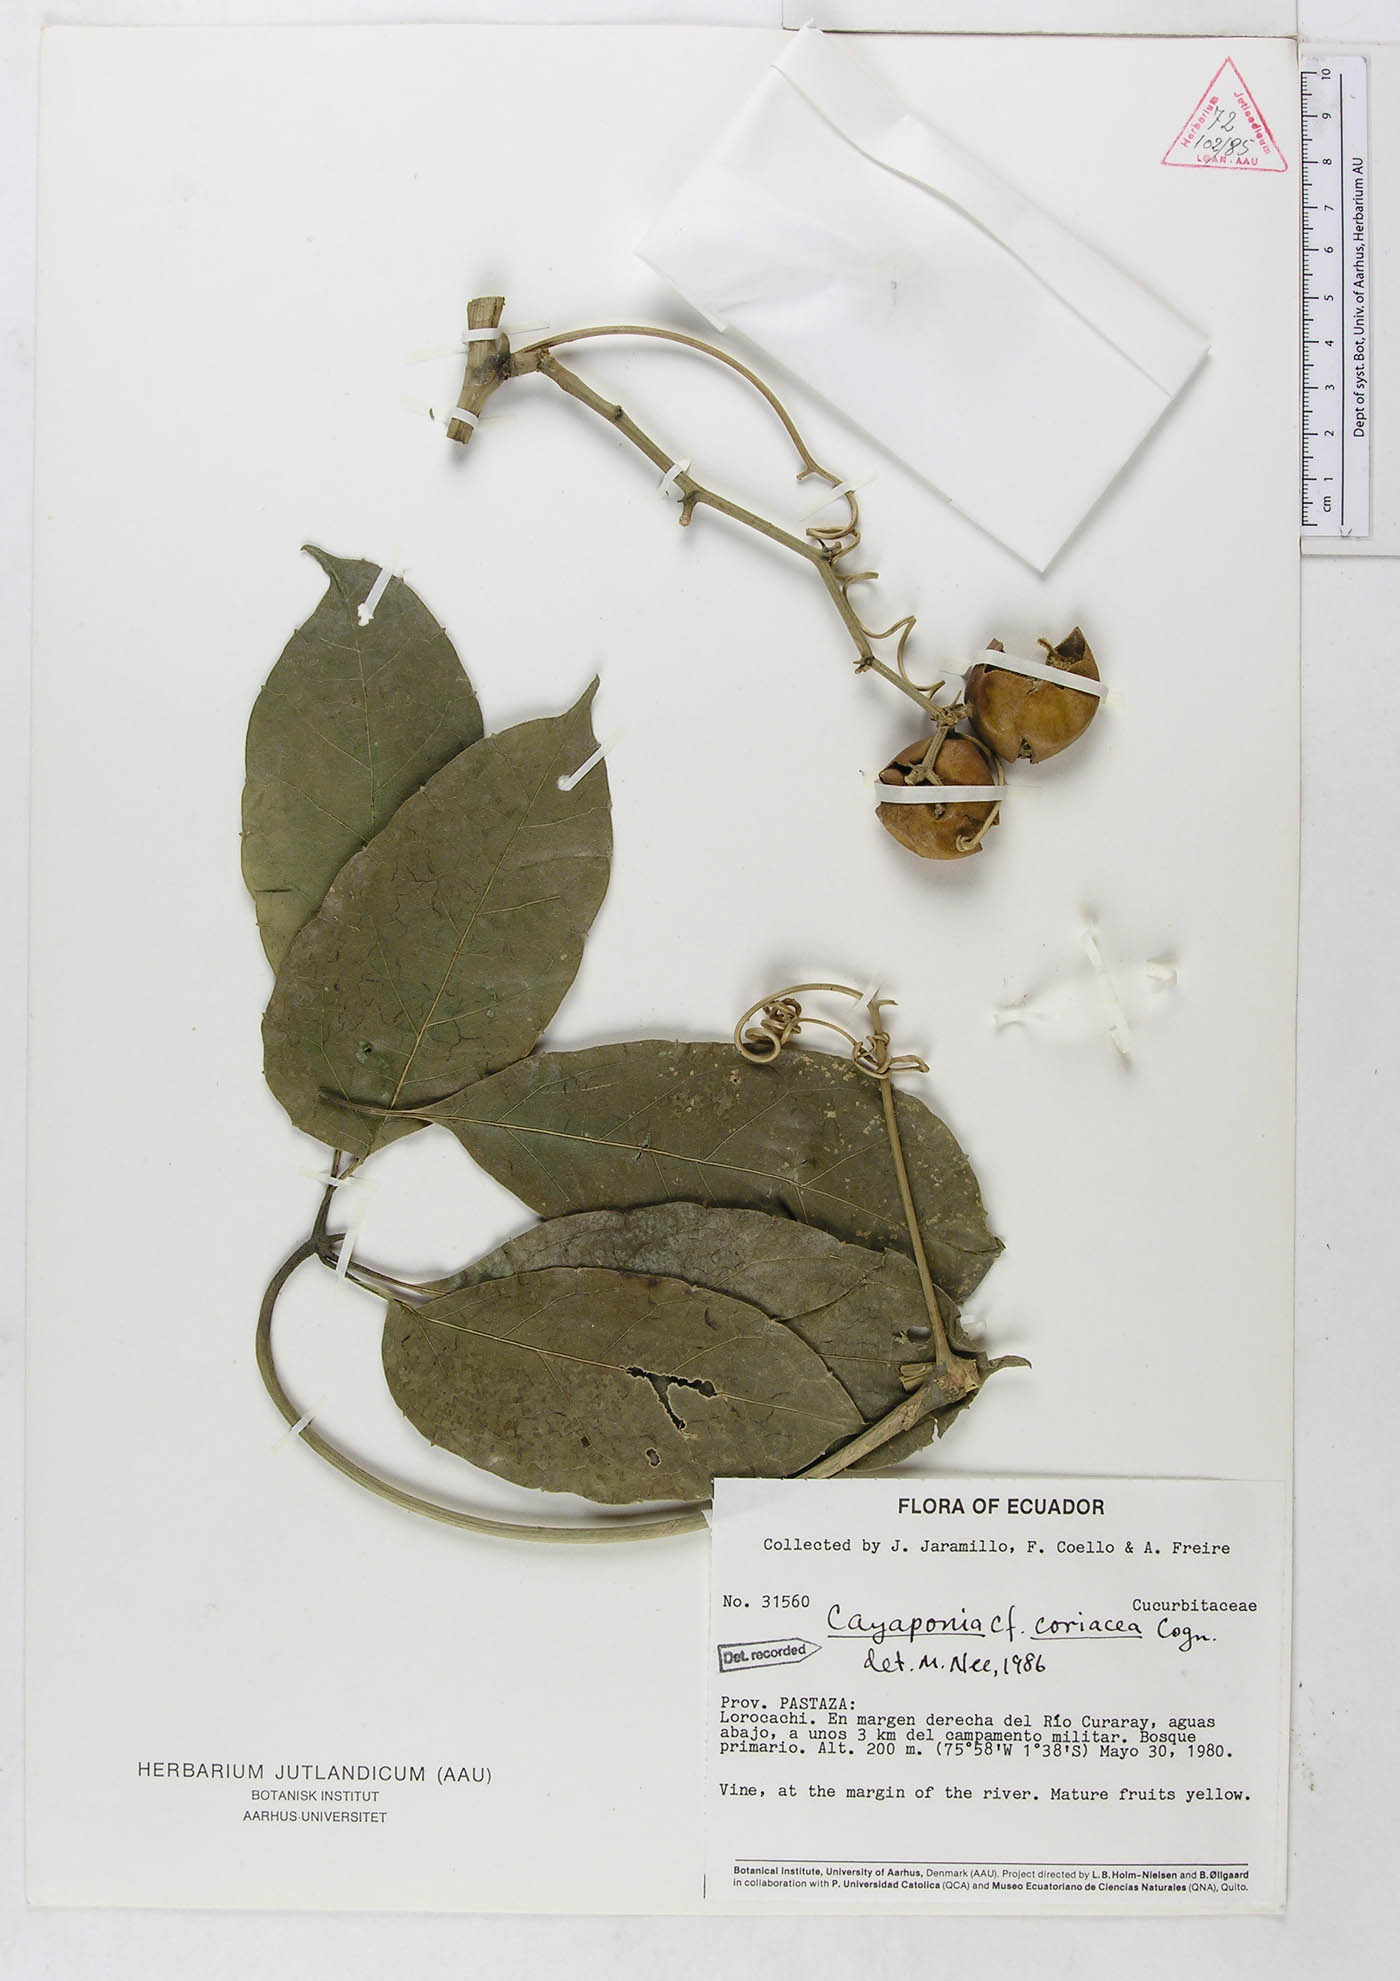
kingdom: Plantae
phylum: Tracheophyta
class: Magnoliopsida
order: Cucurbitales
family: Cucurbitaceae
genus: Cayaponia
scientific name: Cayaponia coriacea
